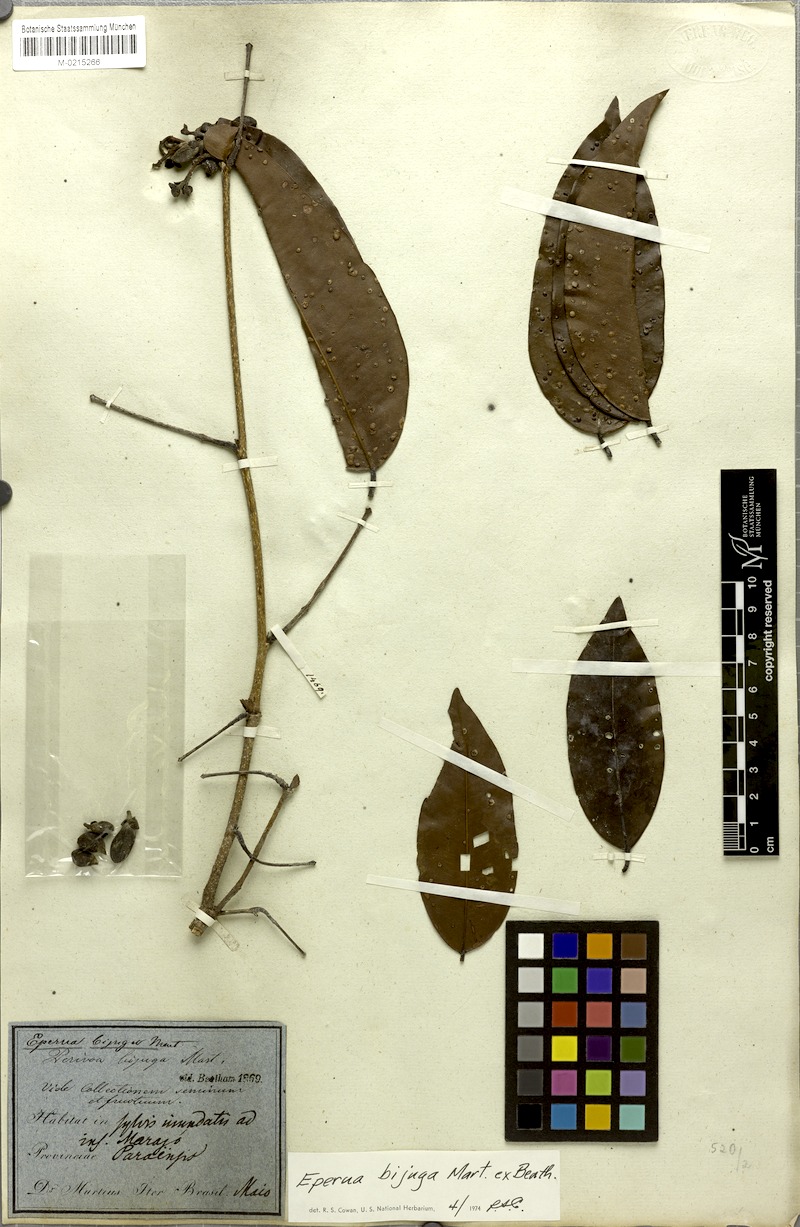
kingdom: Plantae
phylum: Tracheophyta
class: Magnoliopsida
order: Fabales
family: Fabaceae
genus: Eperua
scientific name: Eperua bijuga
